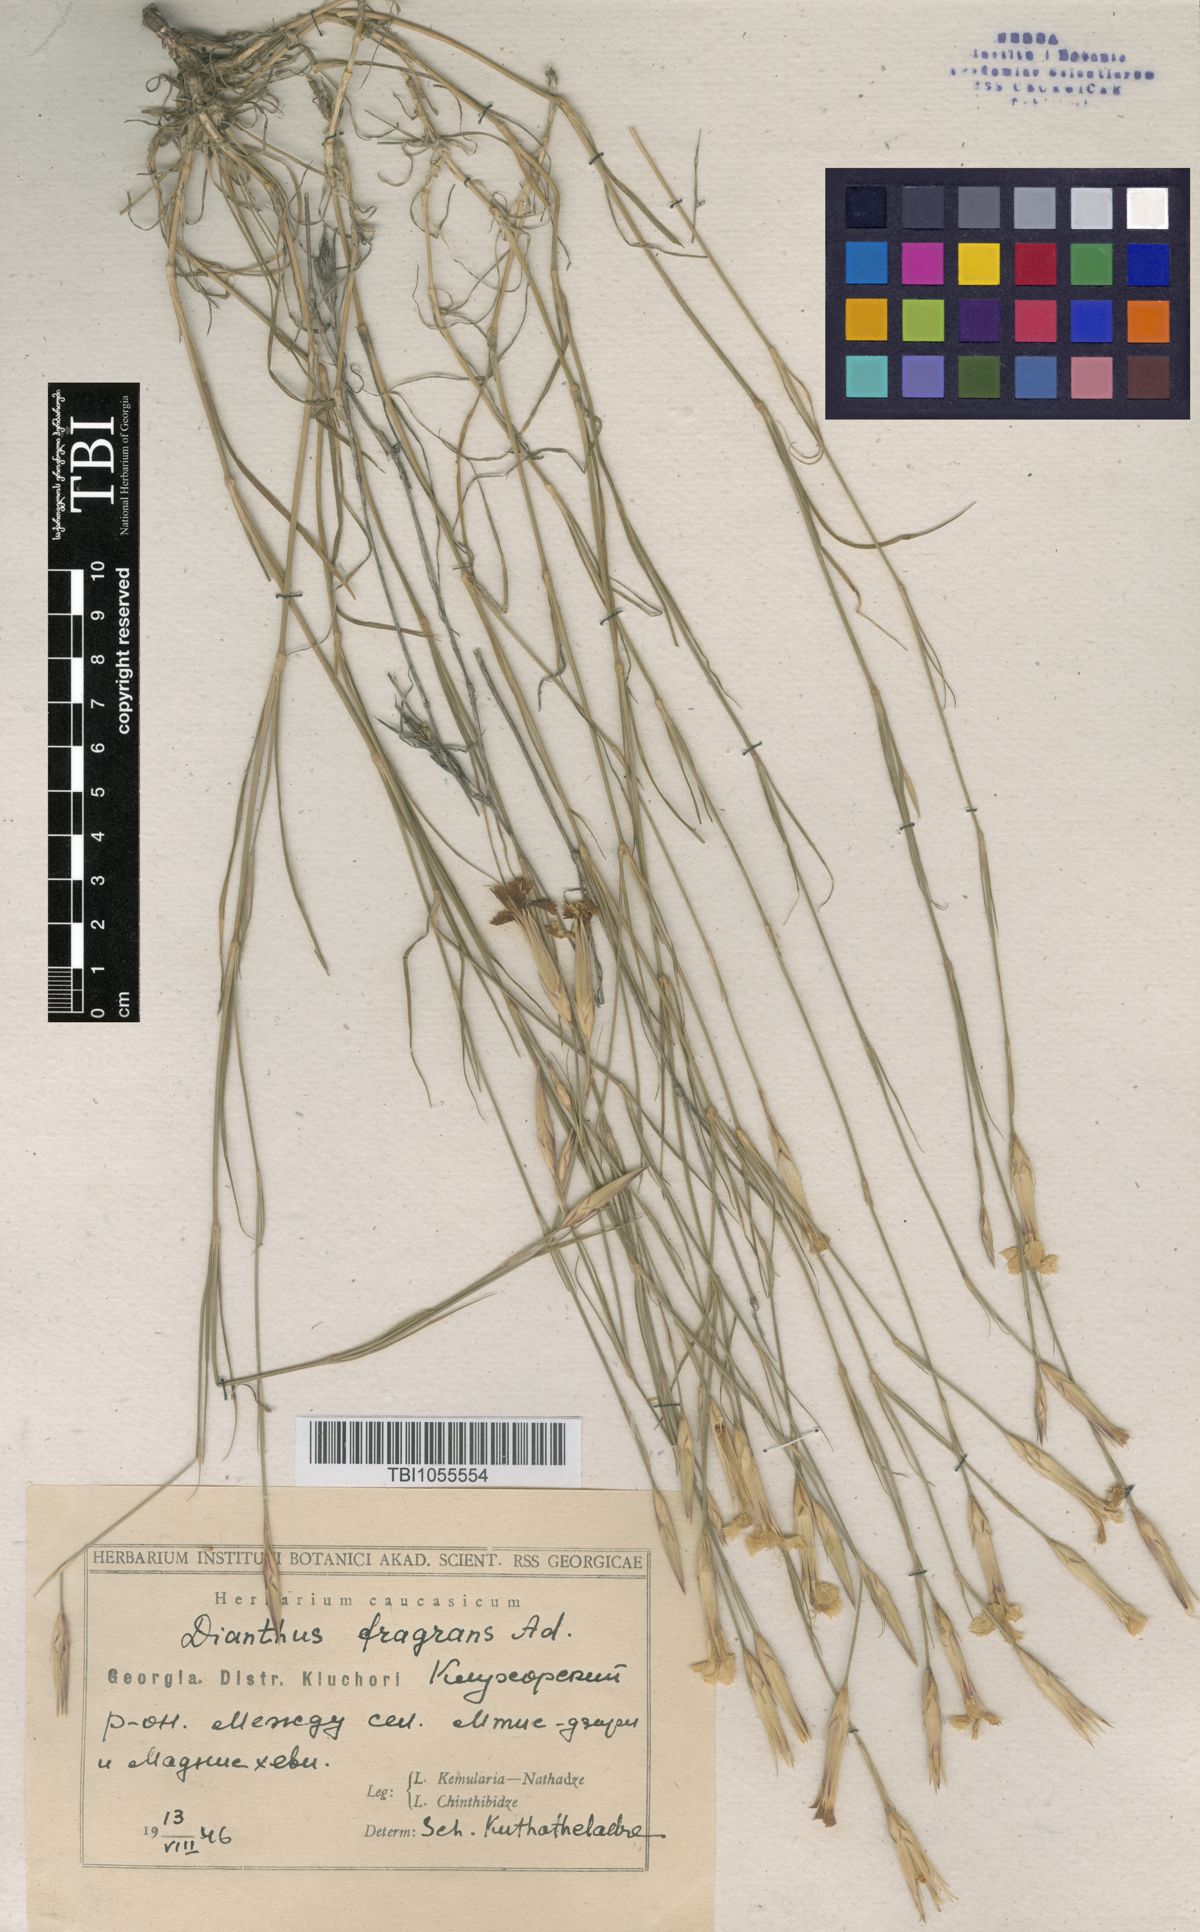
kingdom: Plantae
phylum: Tracheophyta
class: Magnoliopsida
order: Caryophyllales
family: Caryophyllaceae
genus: Dianthus
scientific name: Dianthus
